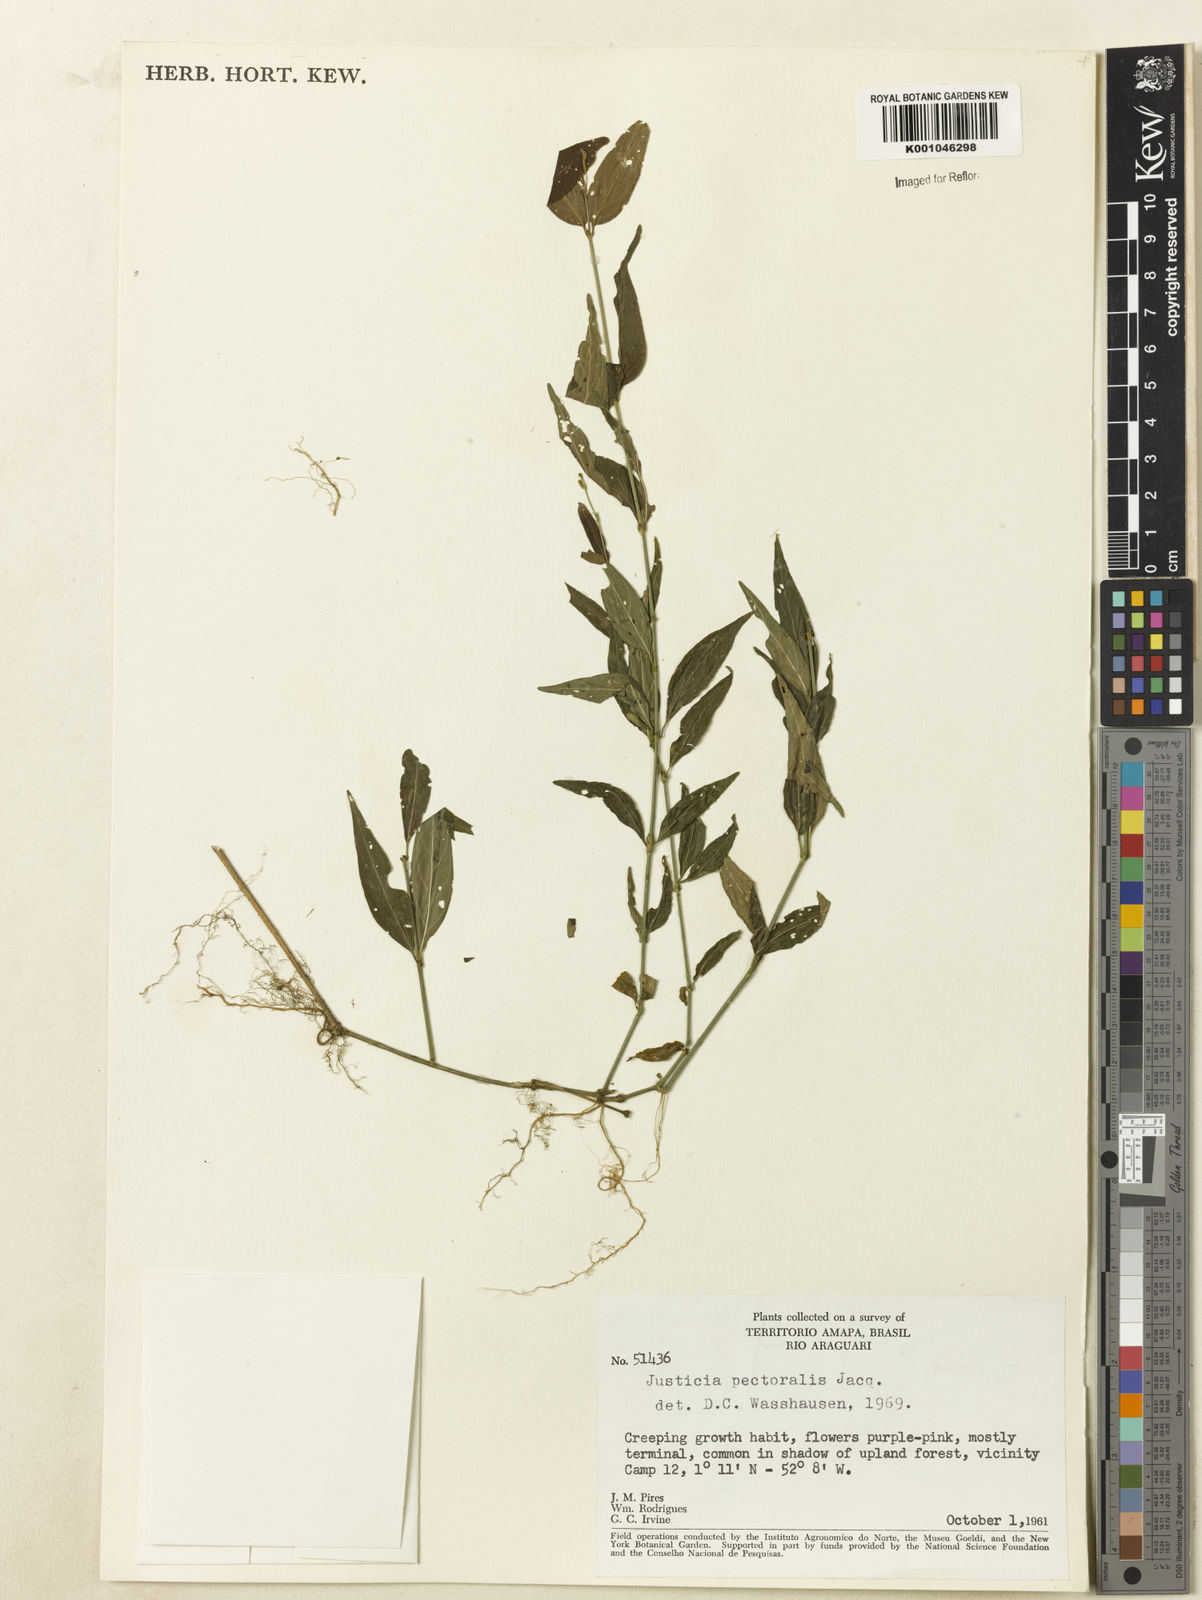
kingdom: Plantae
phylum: Tracheophyta
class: Magnoliopsida
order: Lamiales
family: Acanthaceae
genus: Dianthera
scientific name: Dianthera pectoralis
